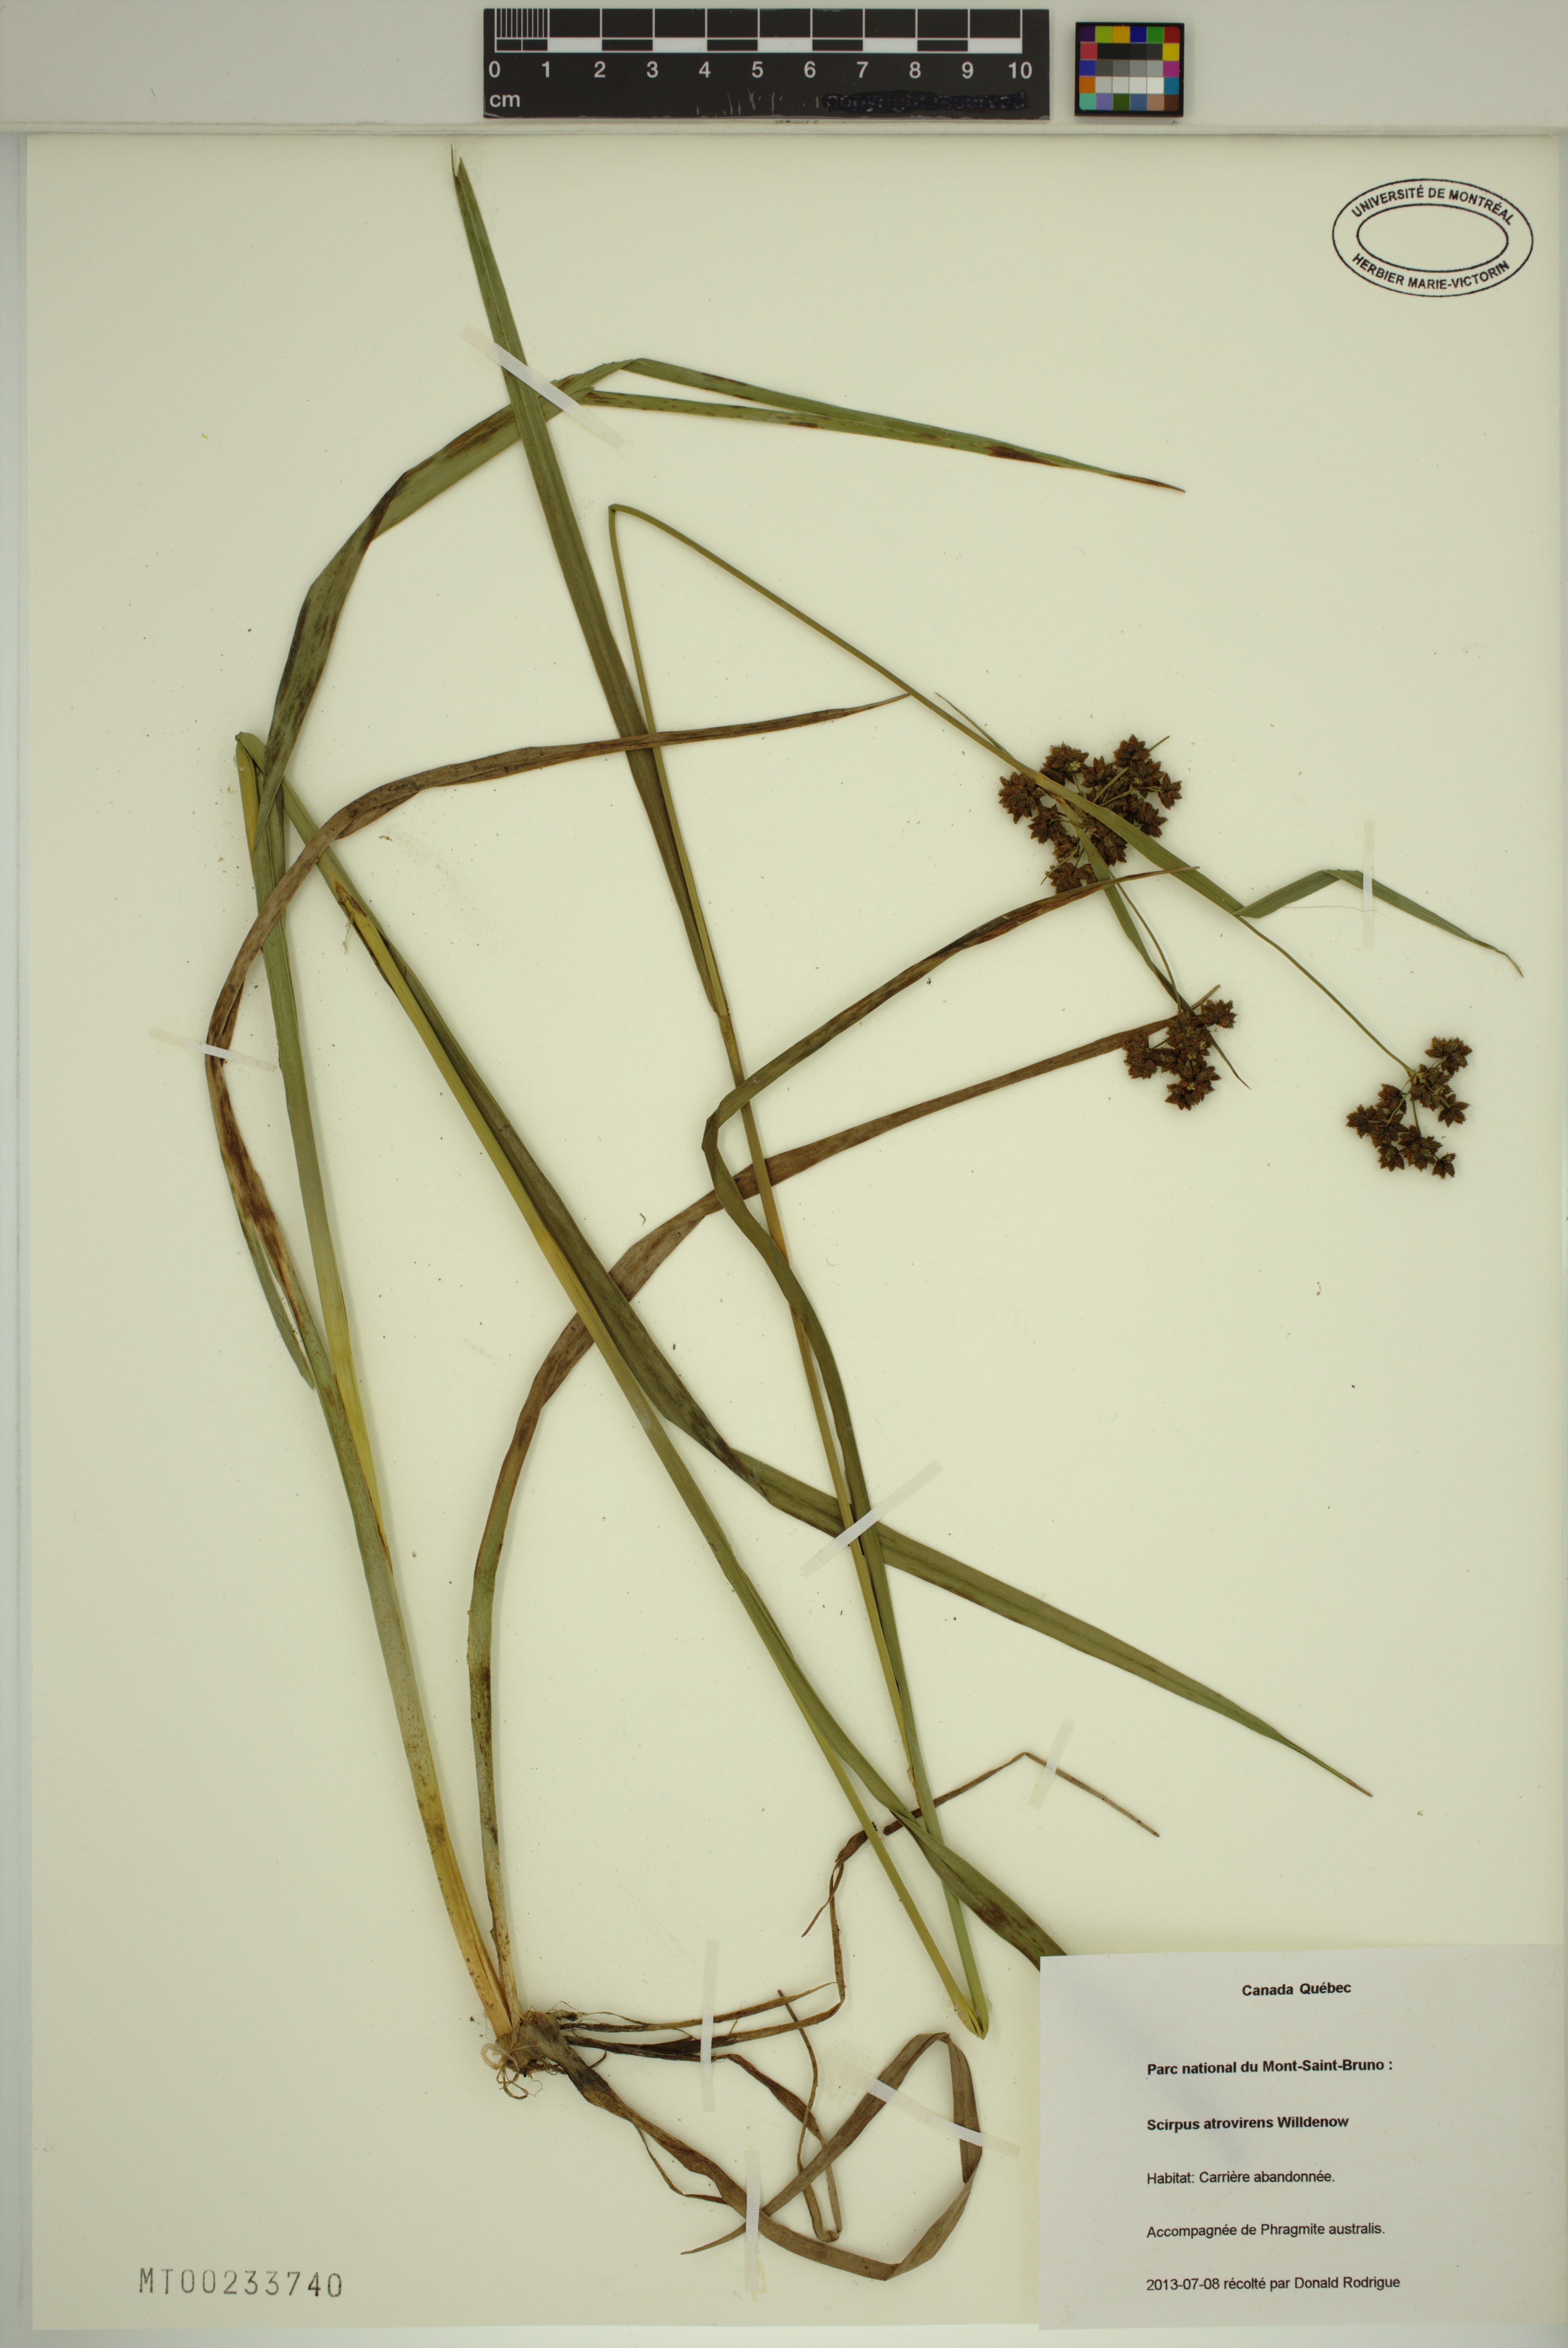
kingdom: Plantae
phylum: Tracheophyta
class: Liliopsida
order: Poales
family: Cyperaceae
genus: Scirpus
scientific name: Scirpus hattorianus
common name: Early dark-green bulrush
